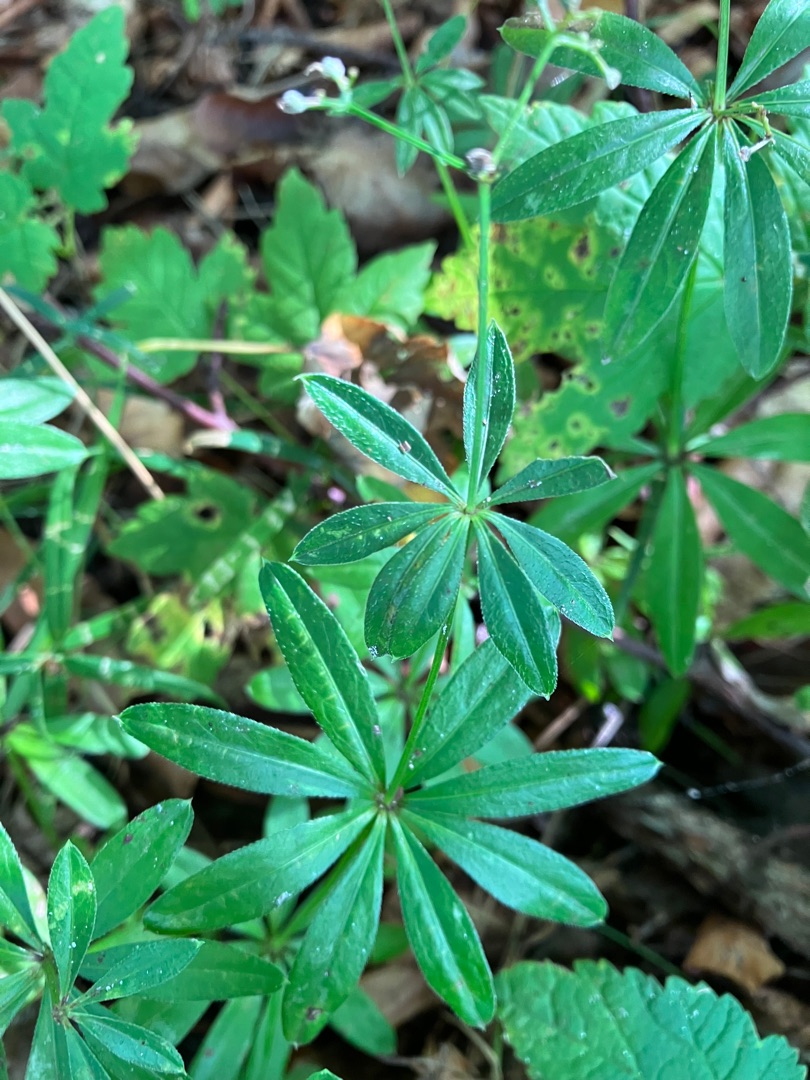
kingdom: Plantae
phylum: Tracheophyta
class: Magnoliopsida
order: Gentianales
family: Rubiaceae
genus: Galium
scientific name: Galium odoratum
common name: Skovmærke
